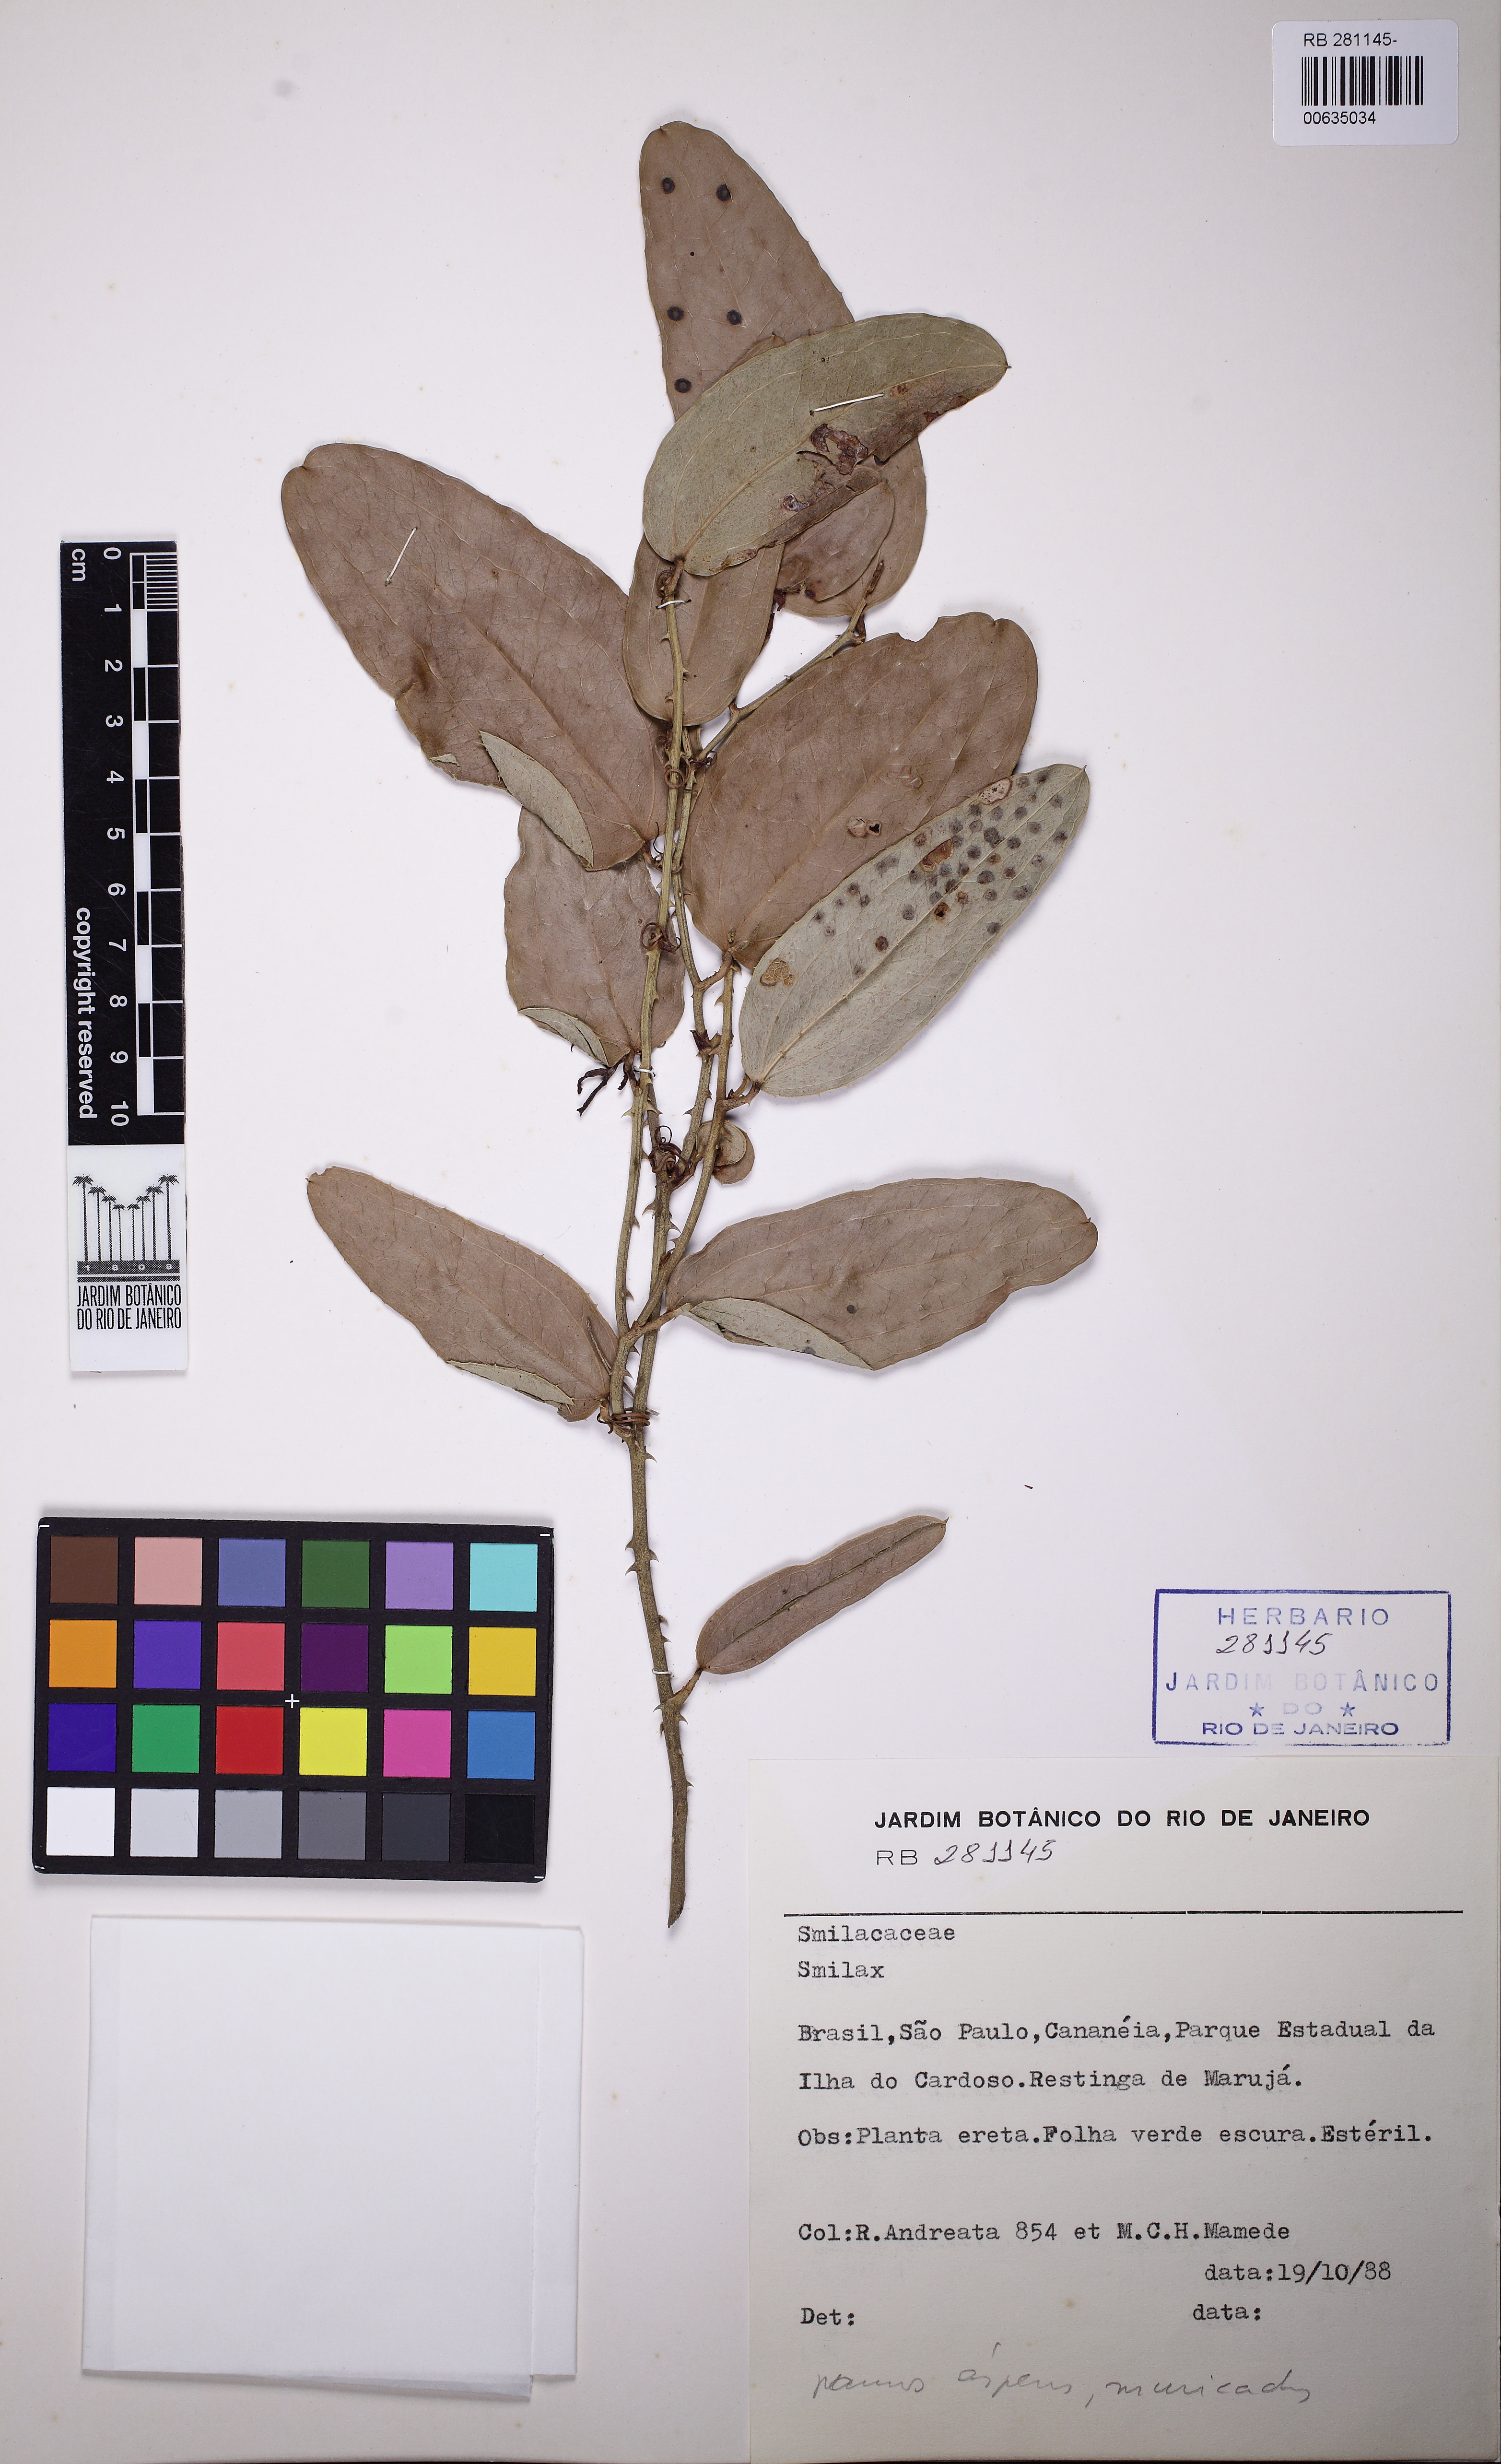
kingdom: Plantae
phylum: Tracheophyta
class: Liliopsida
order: Liliales
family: Smilacaceae
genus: Smilax
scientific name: Smilax
